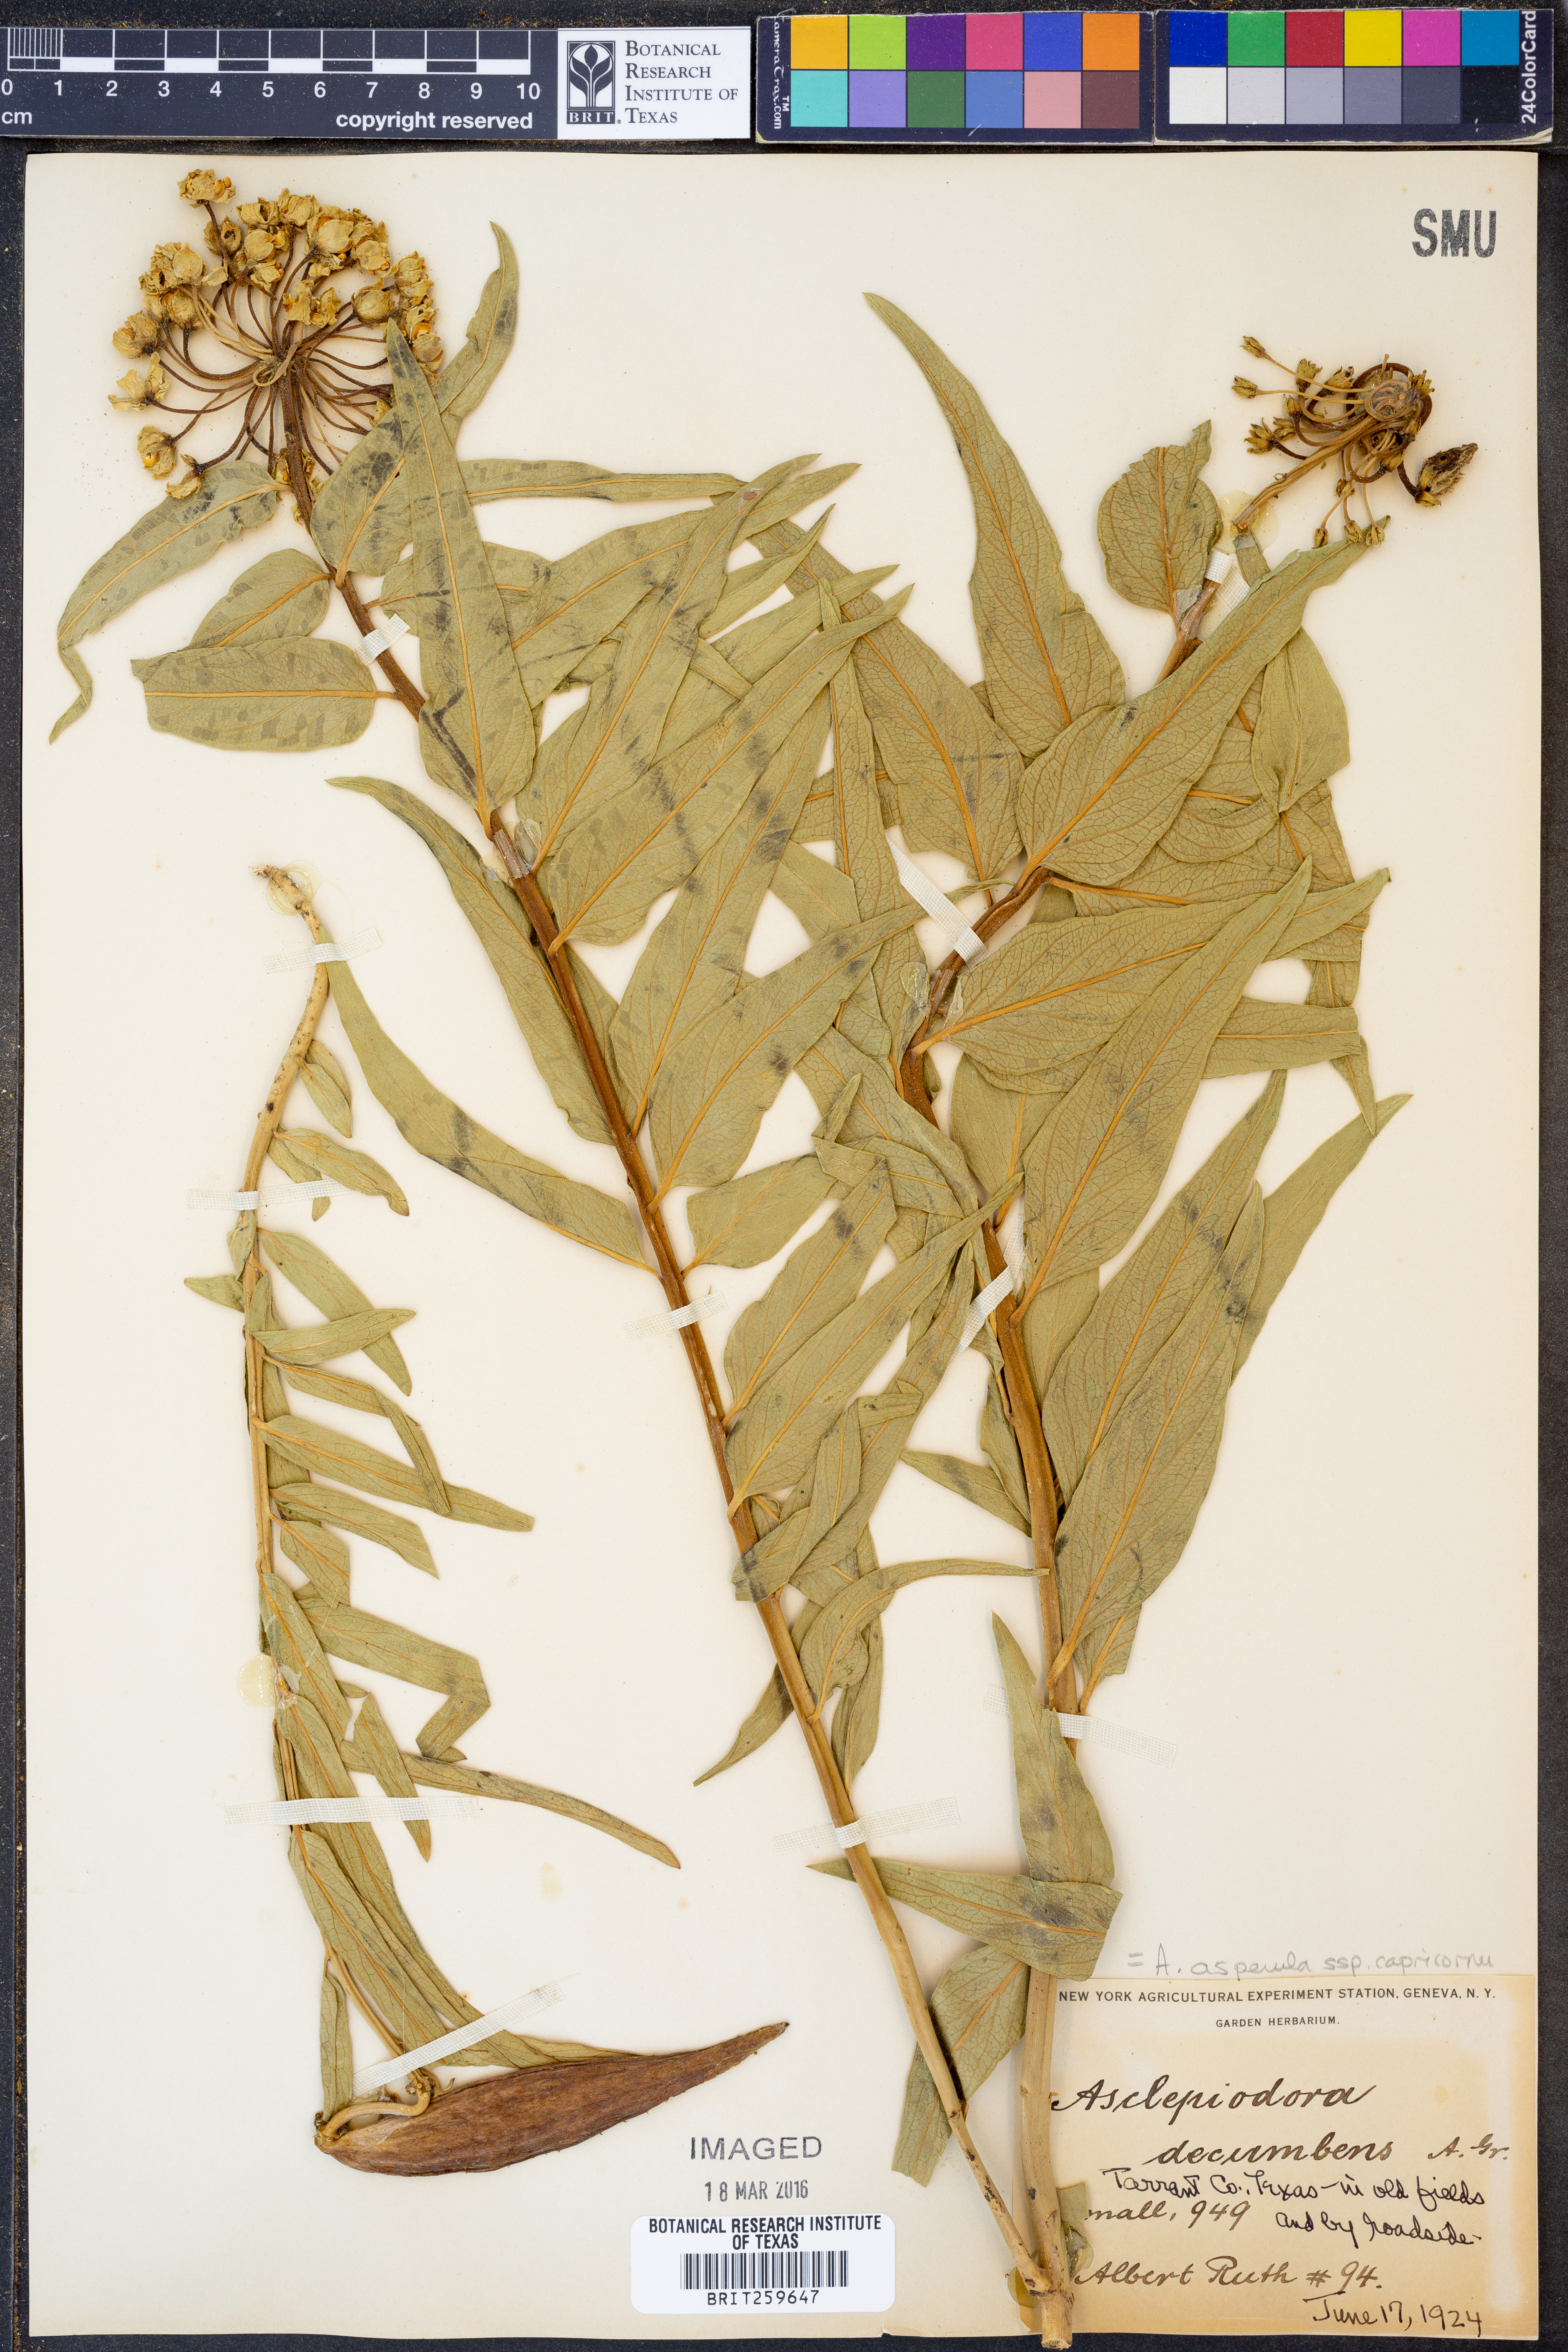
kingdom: Plantae
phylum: Tracheophyta
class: Magnoliopsida
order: Gentianales
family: Apocynaceae
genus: Asclepias
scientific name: Asclepias asperula
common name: Antelope horns
